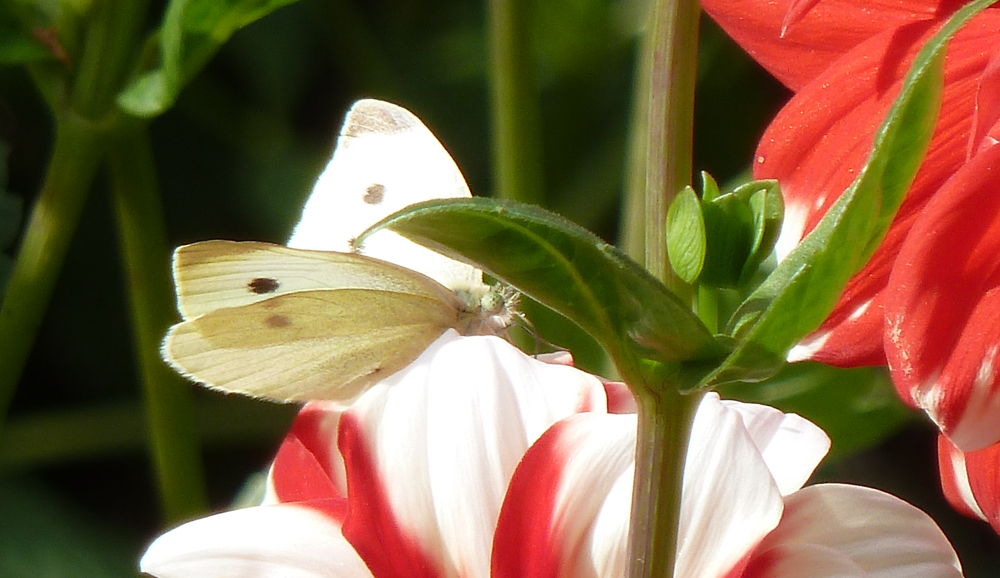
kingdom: Animalia
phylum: Arthropoda
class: Insecta
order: Lepidoptera
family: Pieridae
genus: Pieris
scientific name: Pieris rapae
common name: Small white
